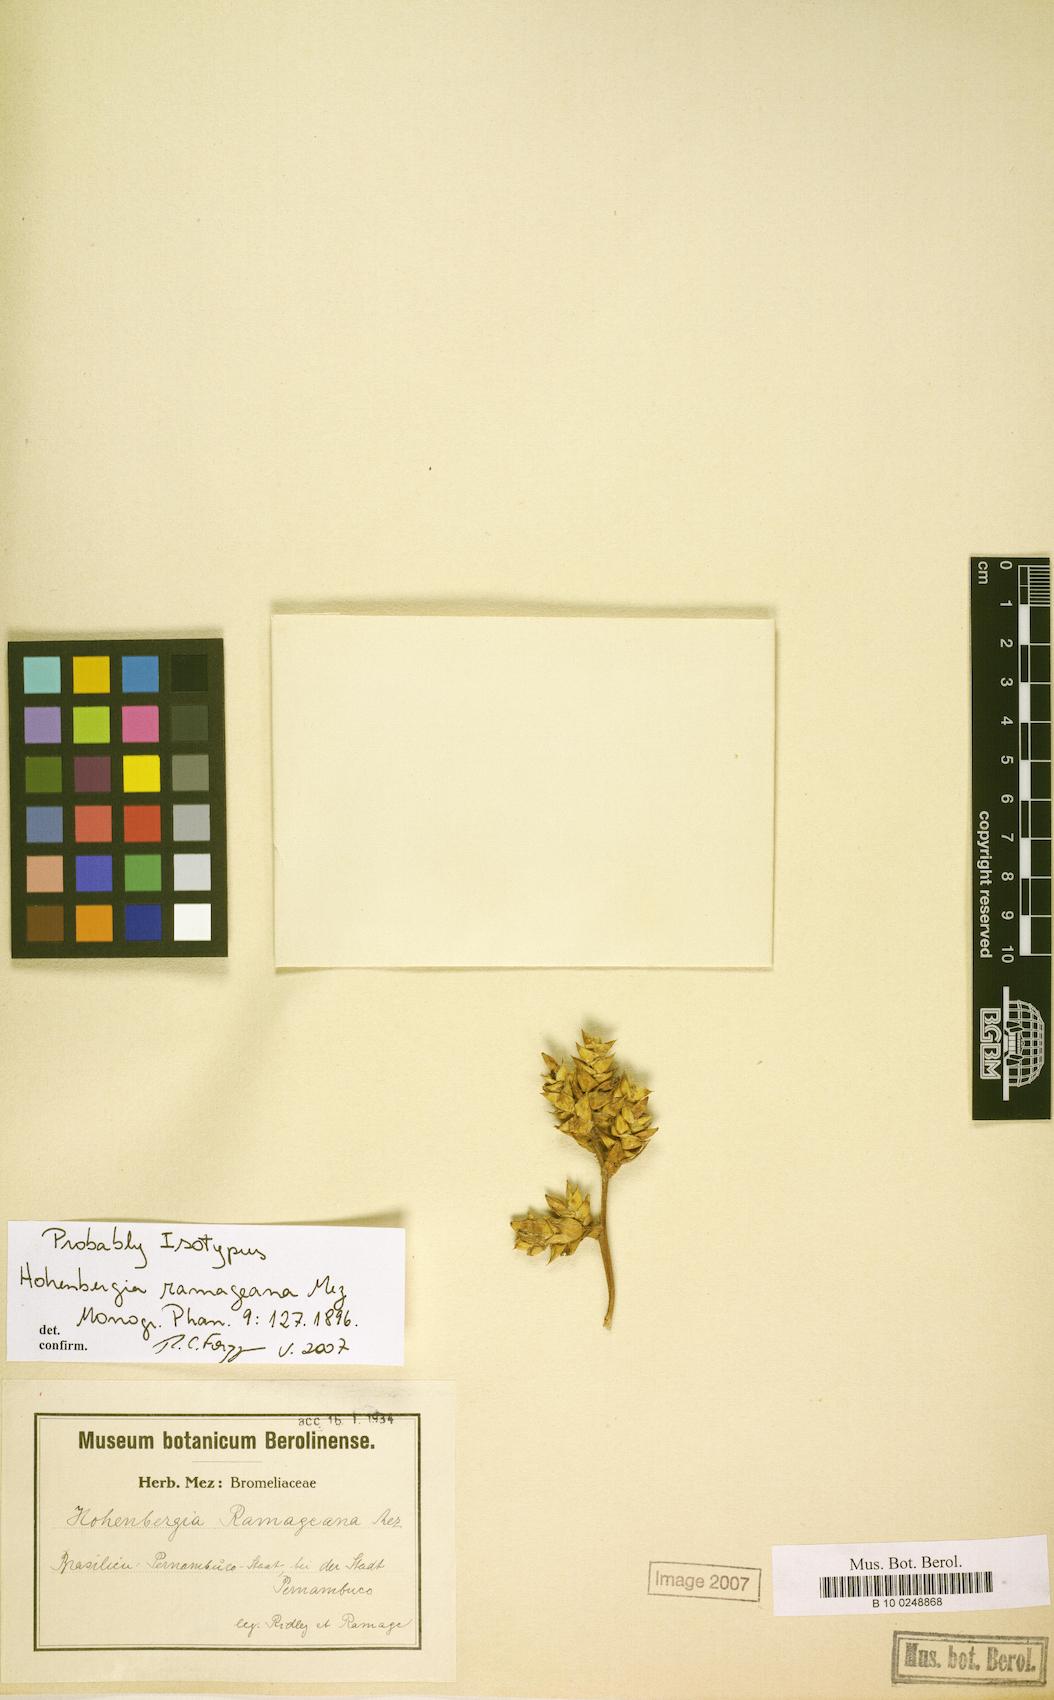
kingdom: Plantae
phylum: Tracheophyta
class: Liliopsida
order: Poales
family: Bromeliaceae
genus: Hohenbergia
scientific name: Hohenbergia ridleyi
